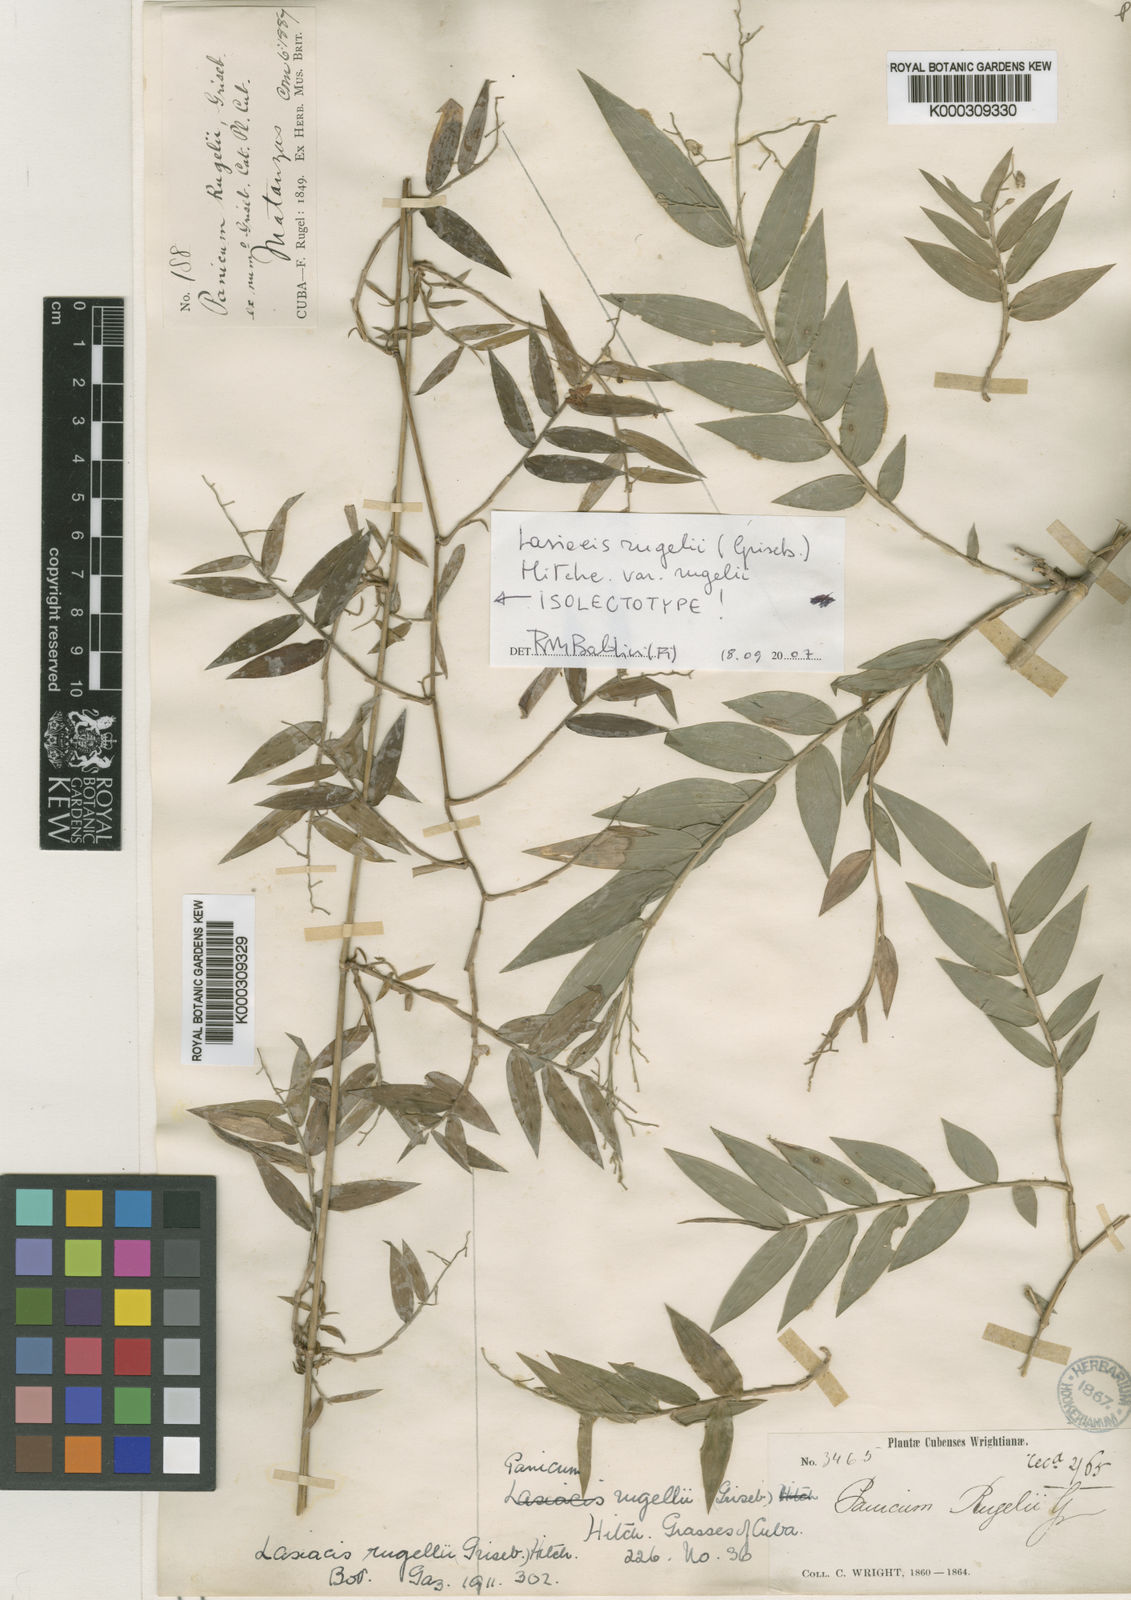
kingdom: Plantae
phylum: Tracheophyta
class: Liliopsida
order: Poales
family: Poaceae
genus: Lasiacis
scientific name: Lasiacis rugelii
